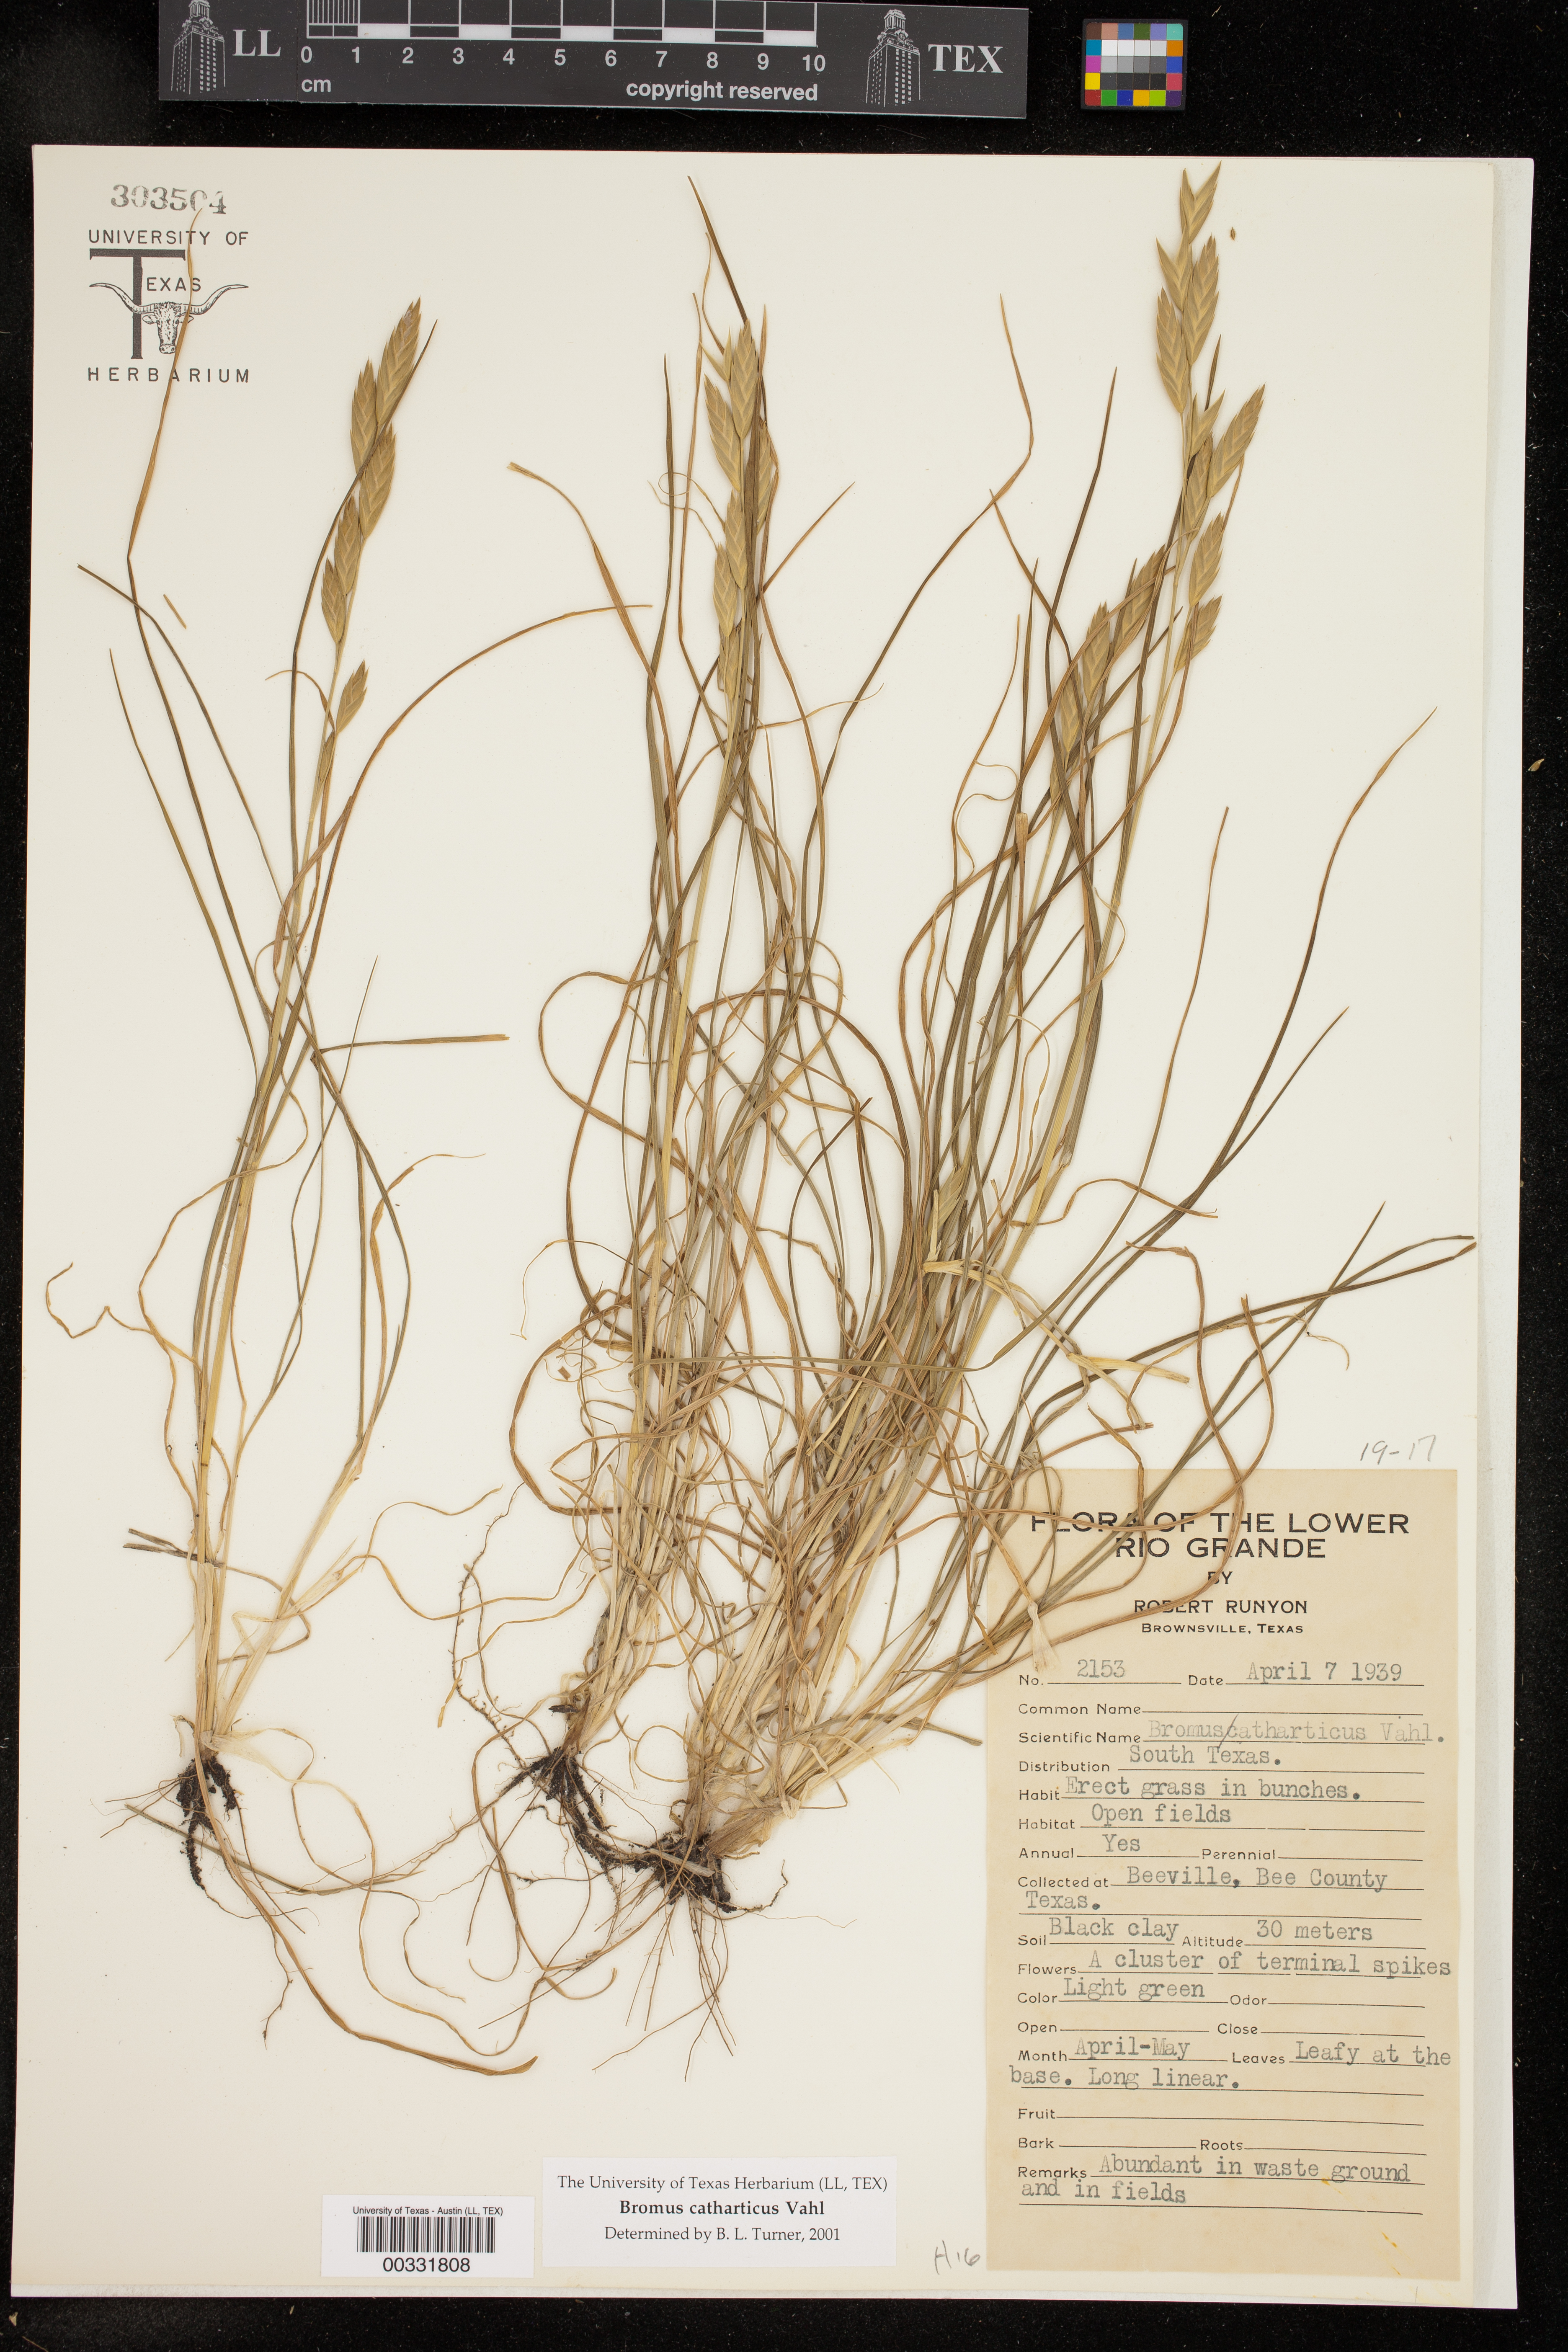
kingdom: Plantae
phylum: Tracheophyta
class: Liliopsida
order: Poales
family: Poaceae
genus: Bromus
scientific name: Bromus catharticus
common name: Rescuegrass
